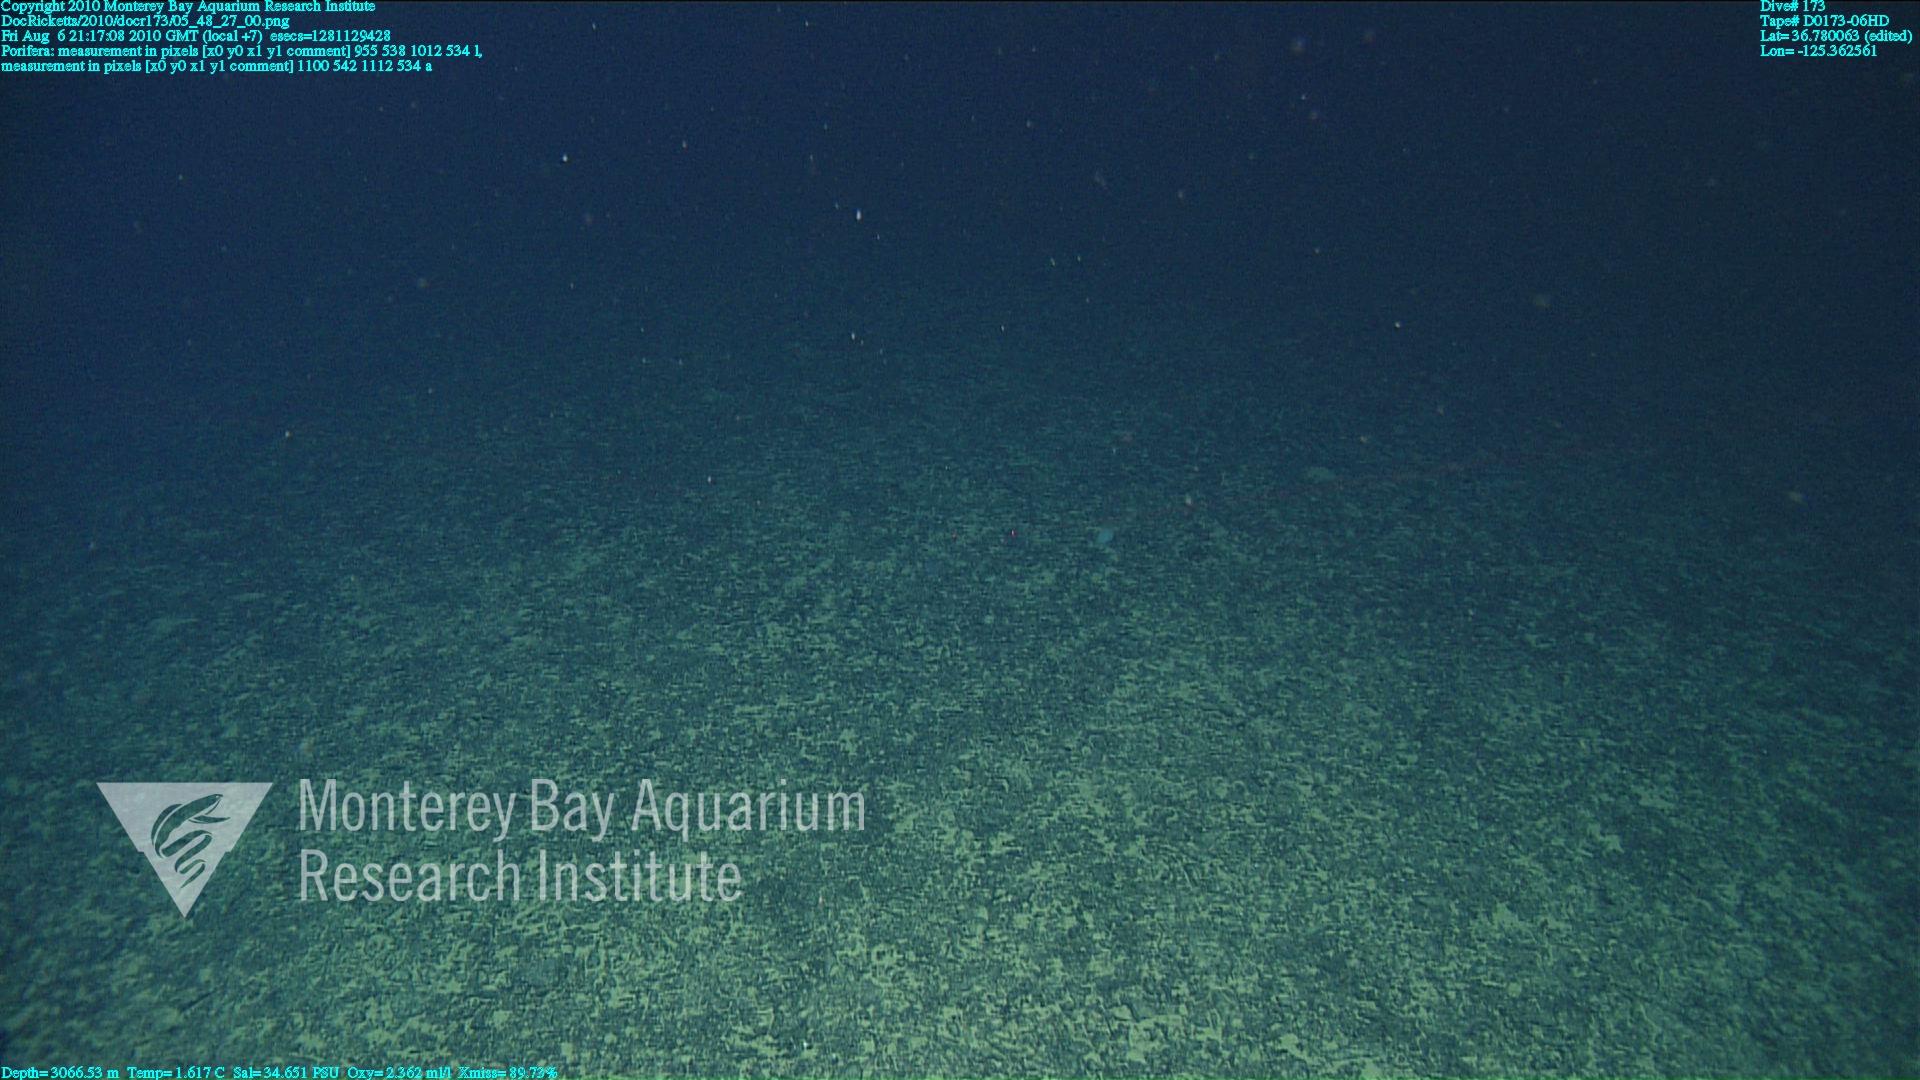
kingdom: Animalia
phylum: Porifera
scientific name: Porifera
